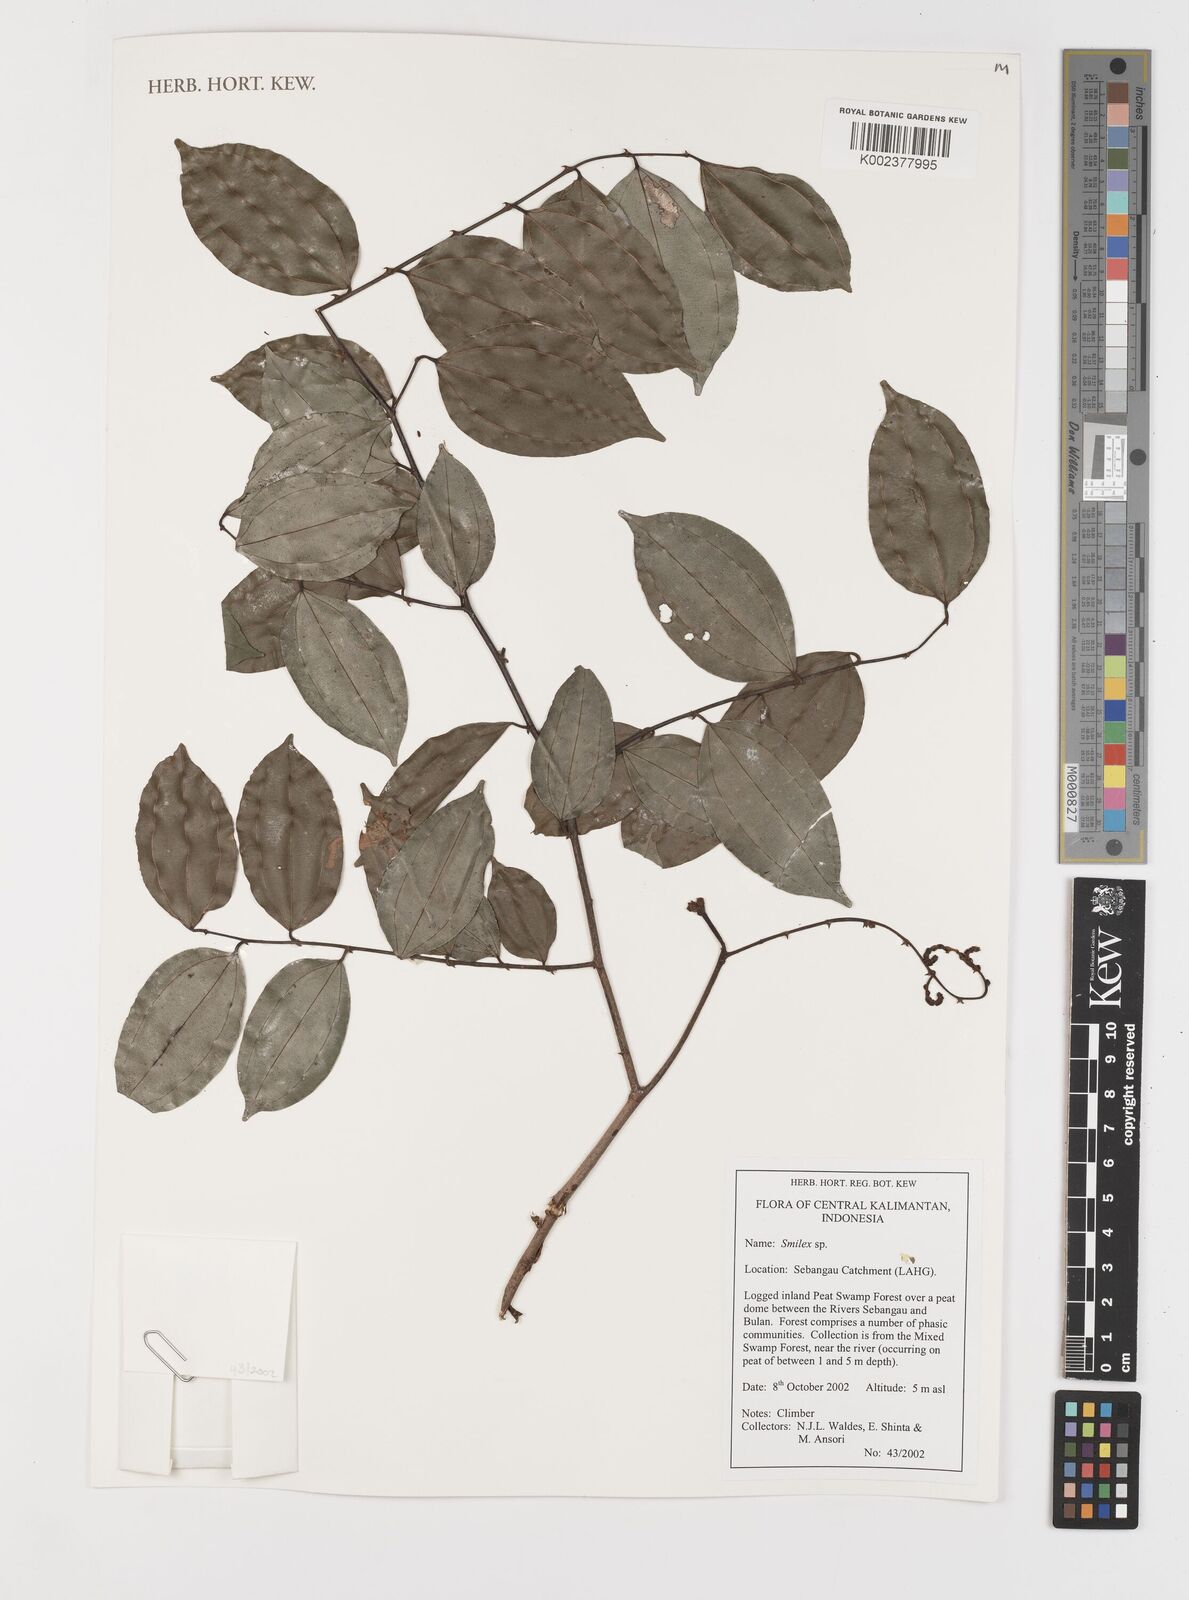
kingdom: Plantae
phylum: Tracheophyta
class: Liliopsida
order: Liliales
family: Smilacaceae
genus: Smilax
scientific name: Smilax
